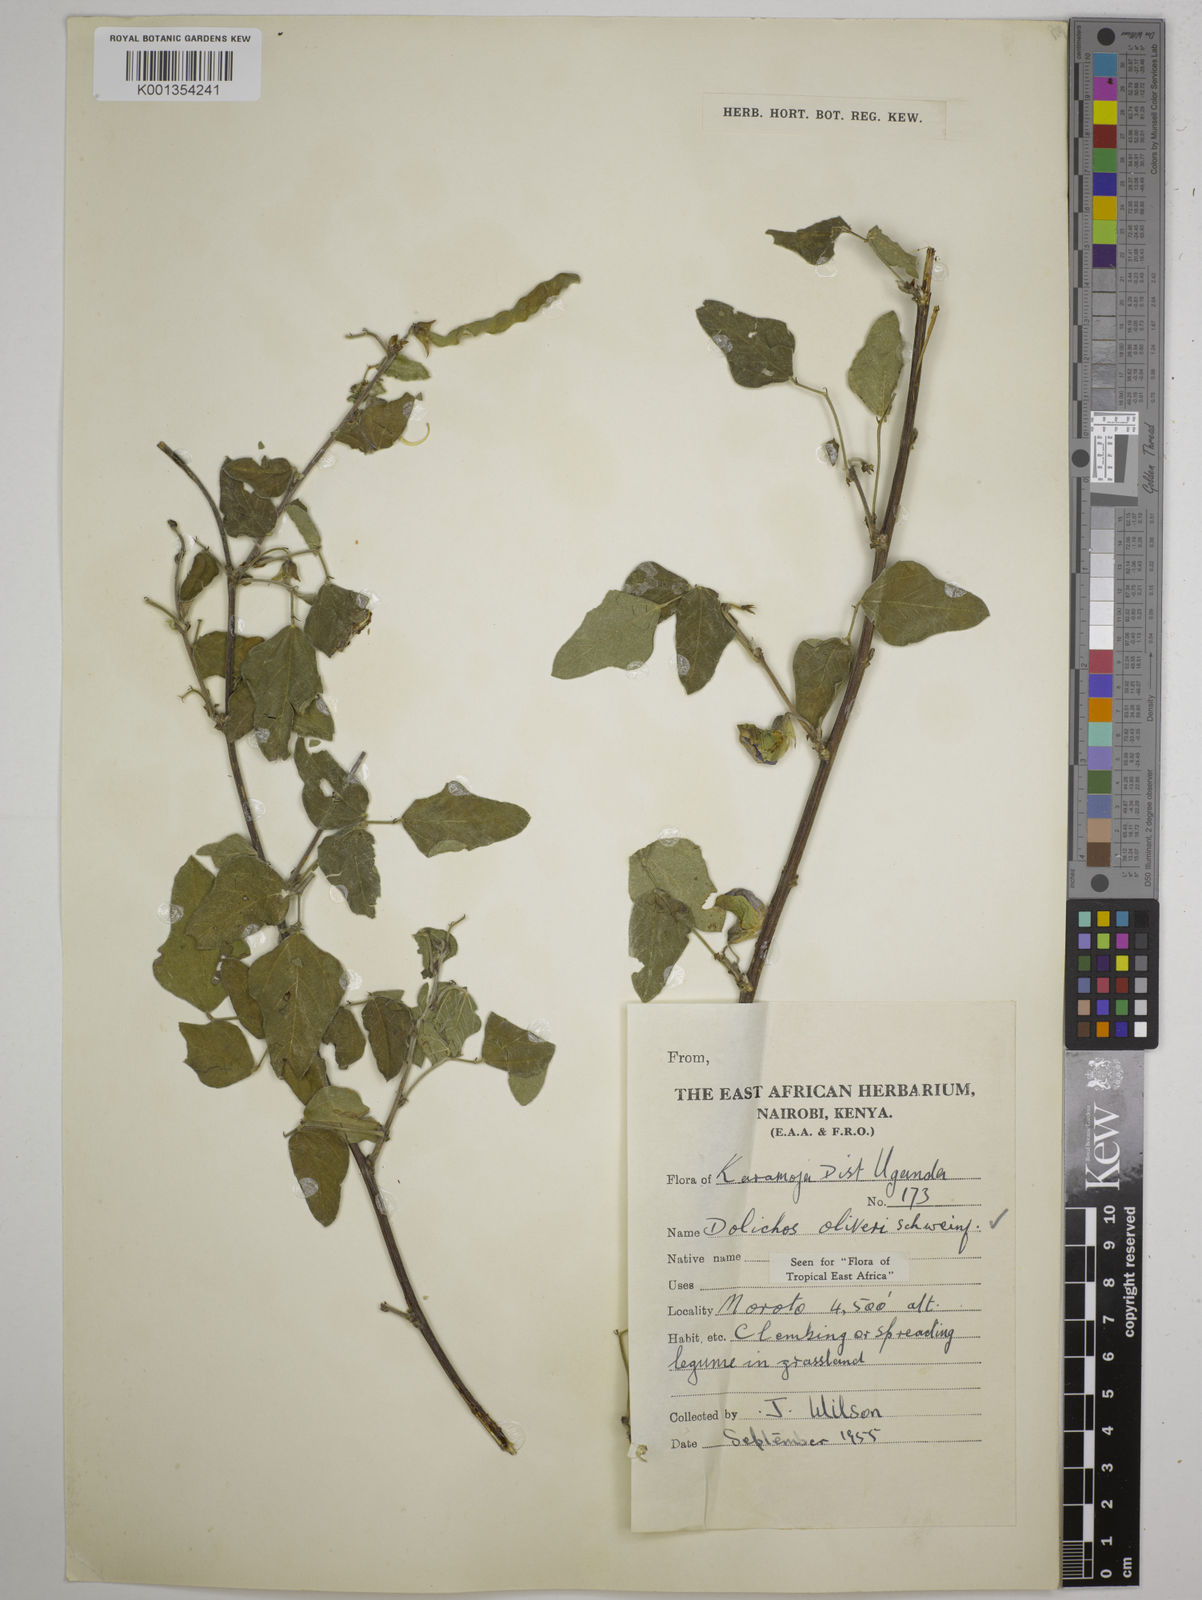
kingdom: Plantae
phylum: Tracheophyta
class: Magnoliopsida
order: Fabales
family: Fabaceae
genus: Dolichos
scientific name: Dolichos oliveri
